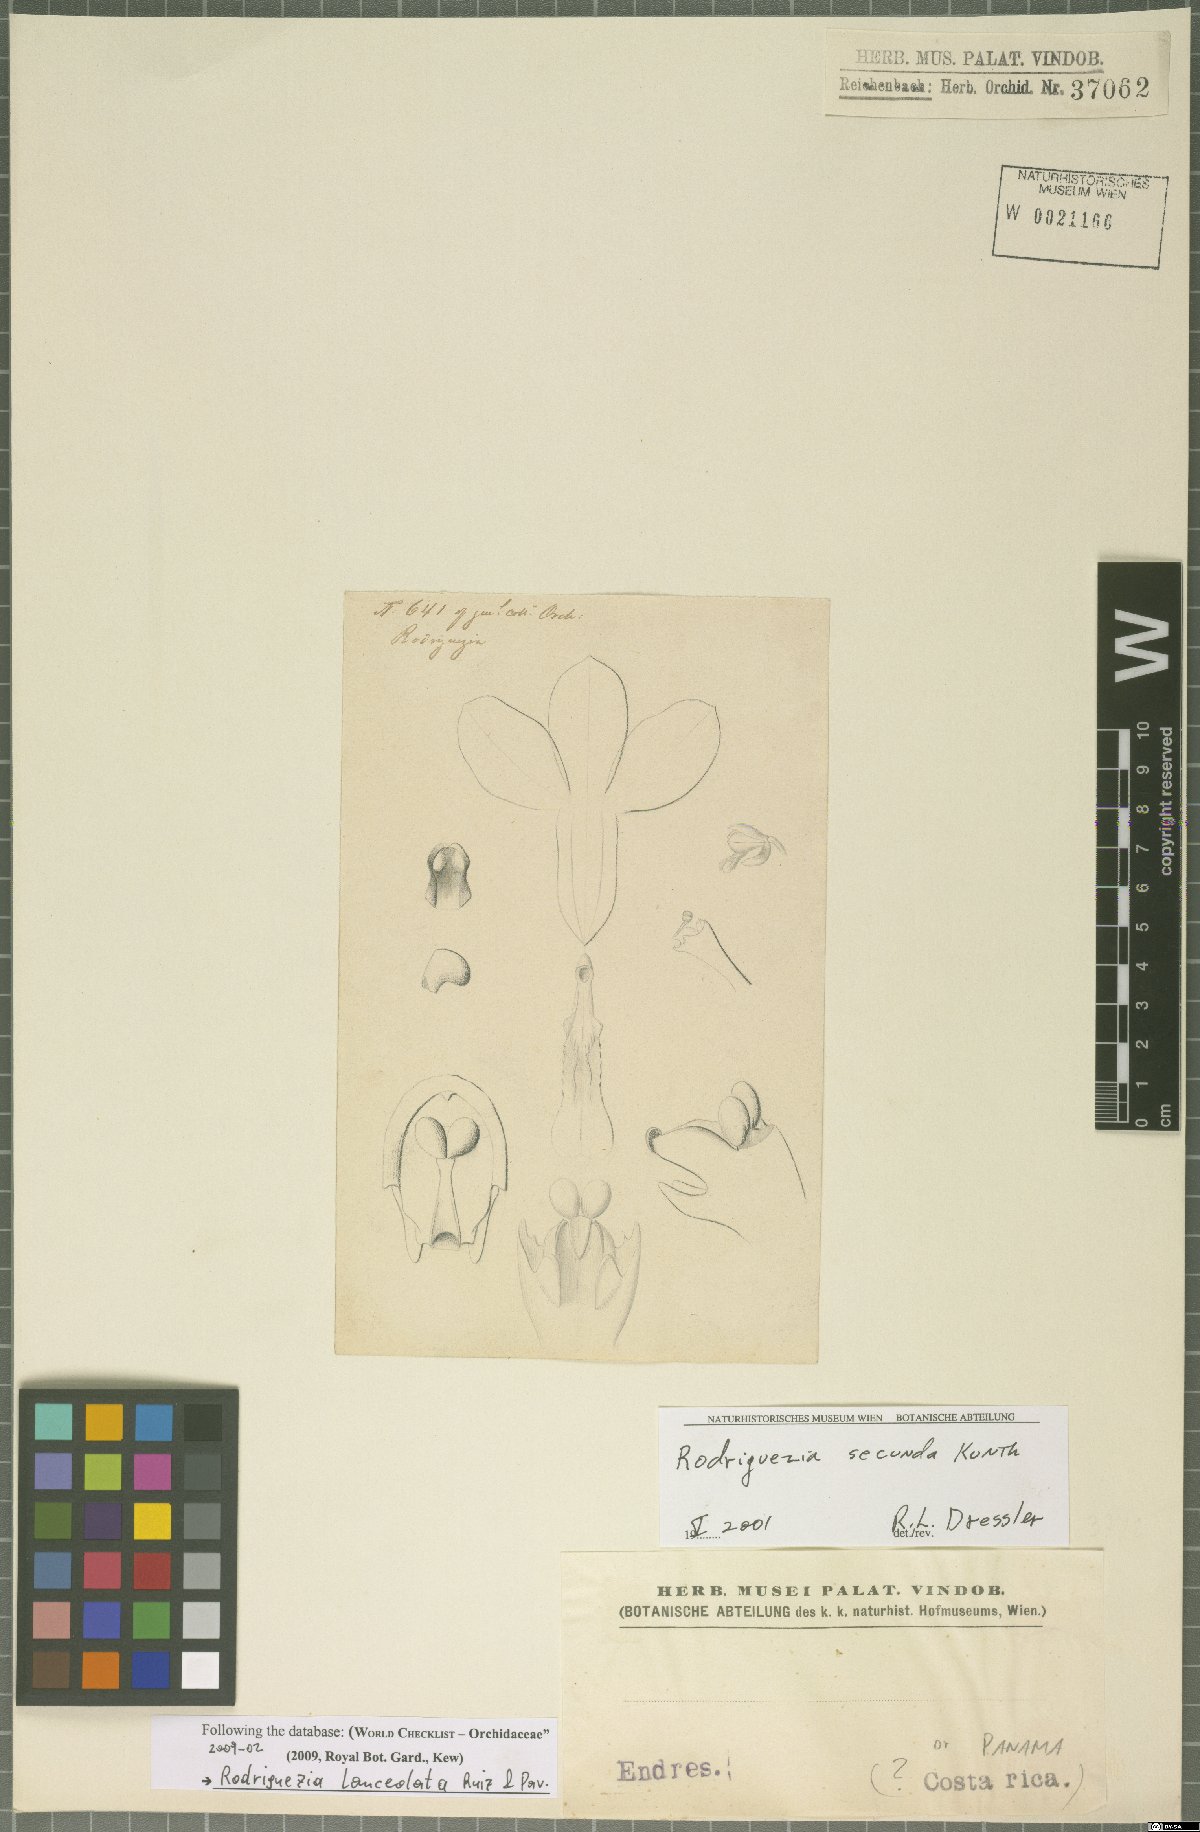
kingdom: Plantae
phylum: Tracheophyta
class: Liliopsida
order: Asparagales
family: Orchidaceae
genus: Rodriguezia
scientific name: Rodriguezia lanceolata
